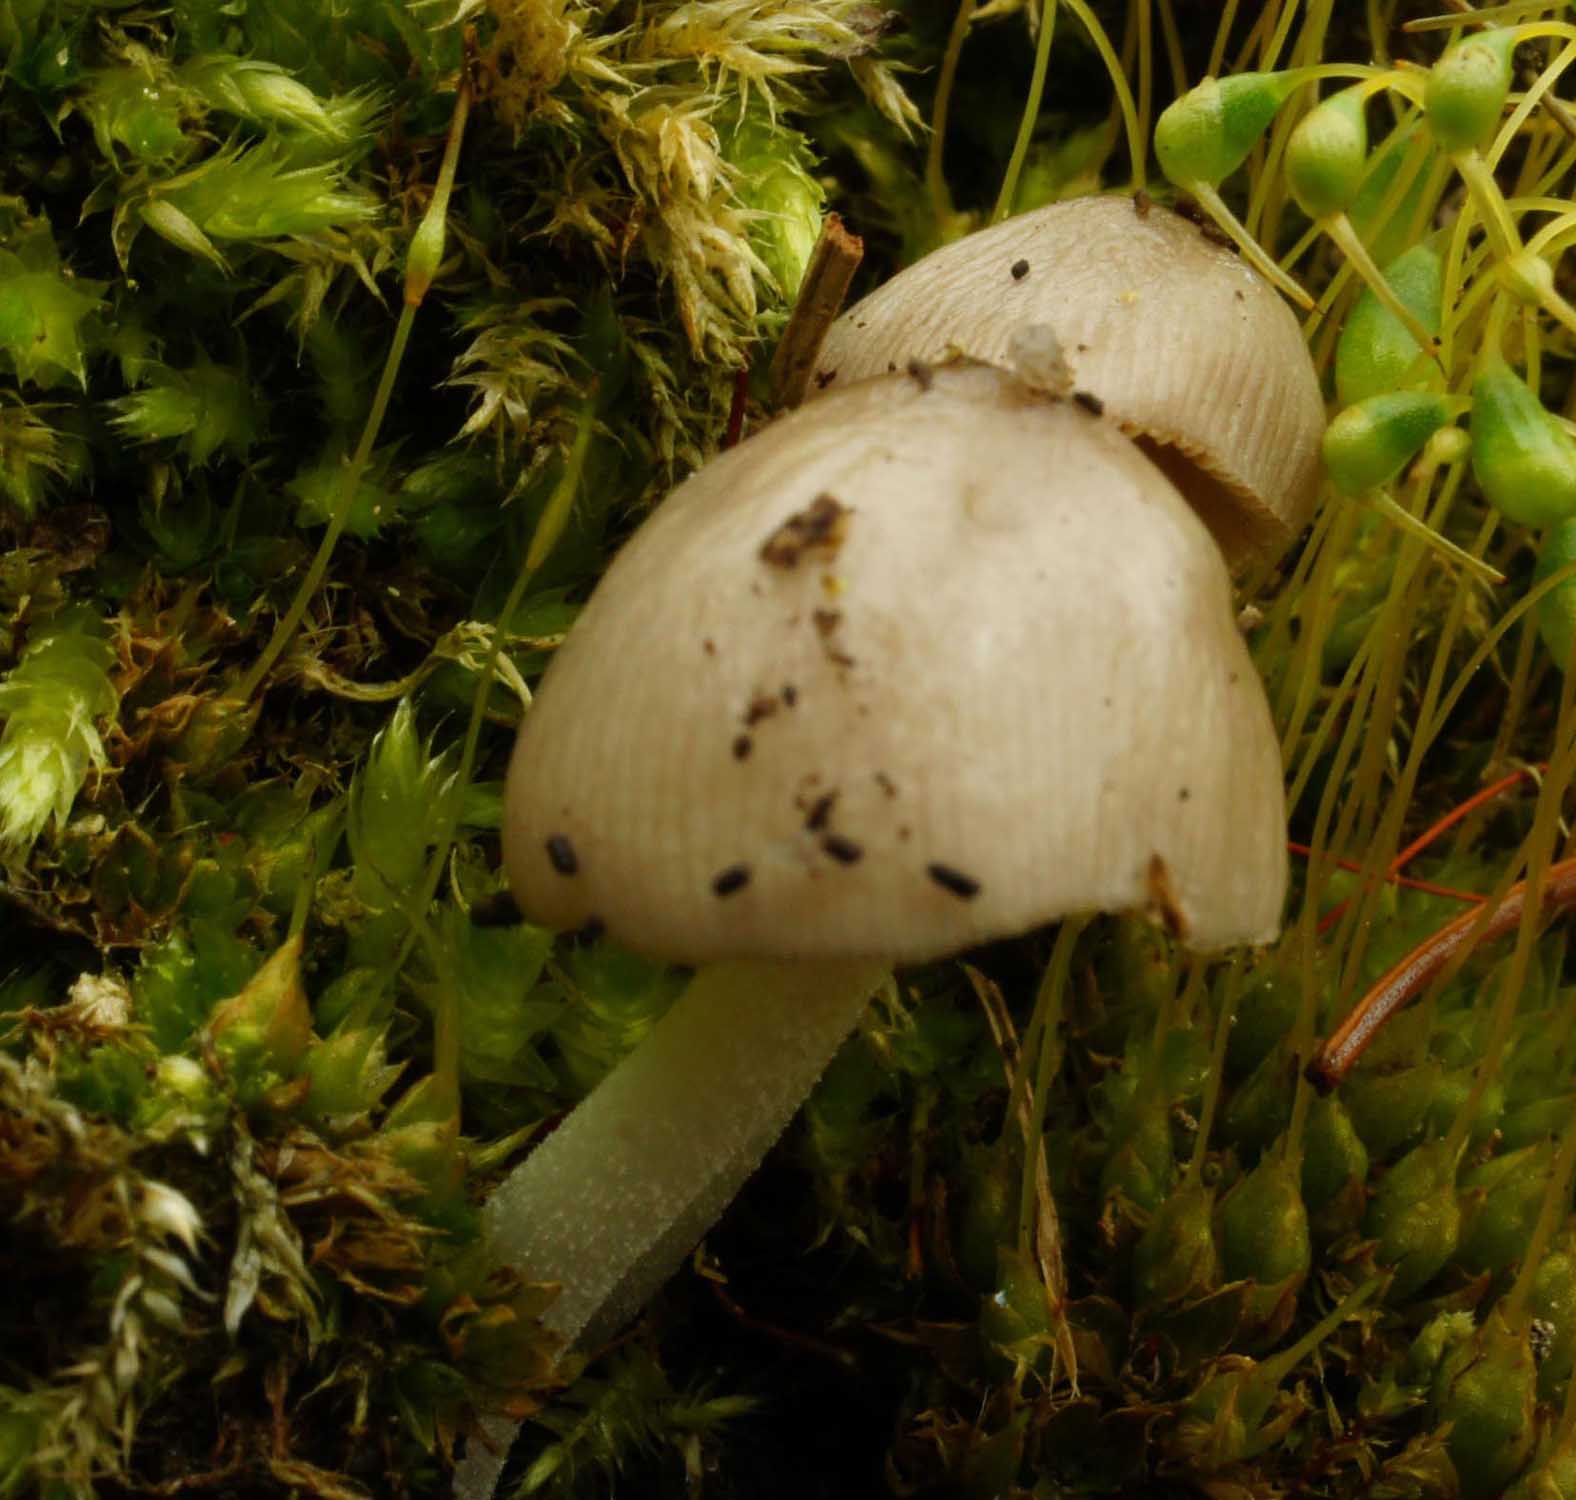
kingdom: Fungi
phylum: Basidiomycota
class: Agaricomycetes
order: Agaricales
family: Bolbitiaceae
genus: Bolbitius
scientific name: Bolbitius reticulatus
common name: Netted fieldcap
